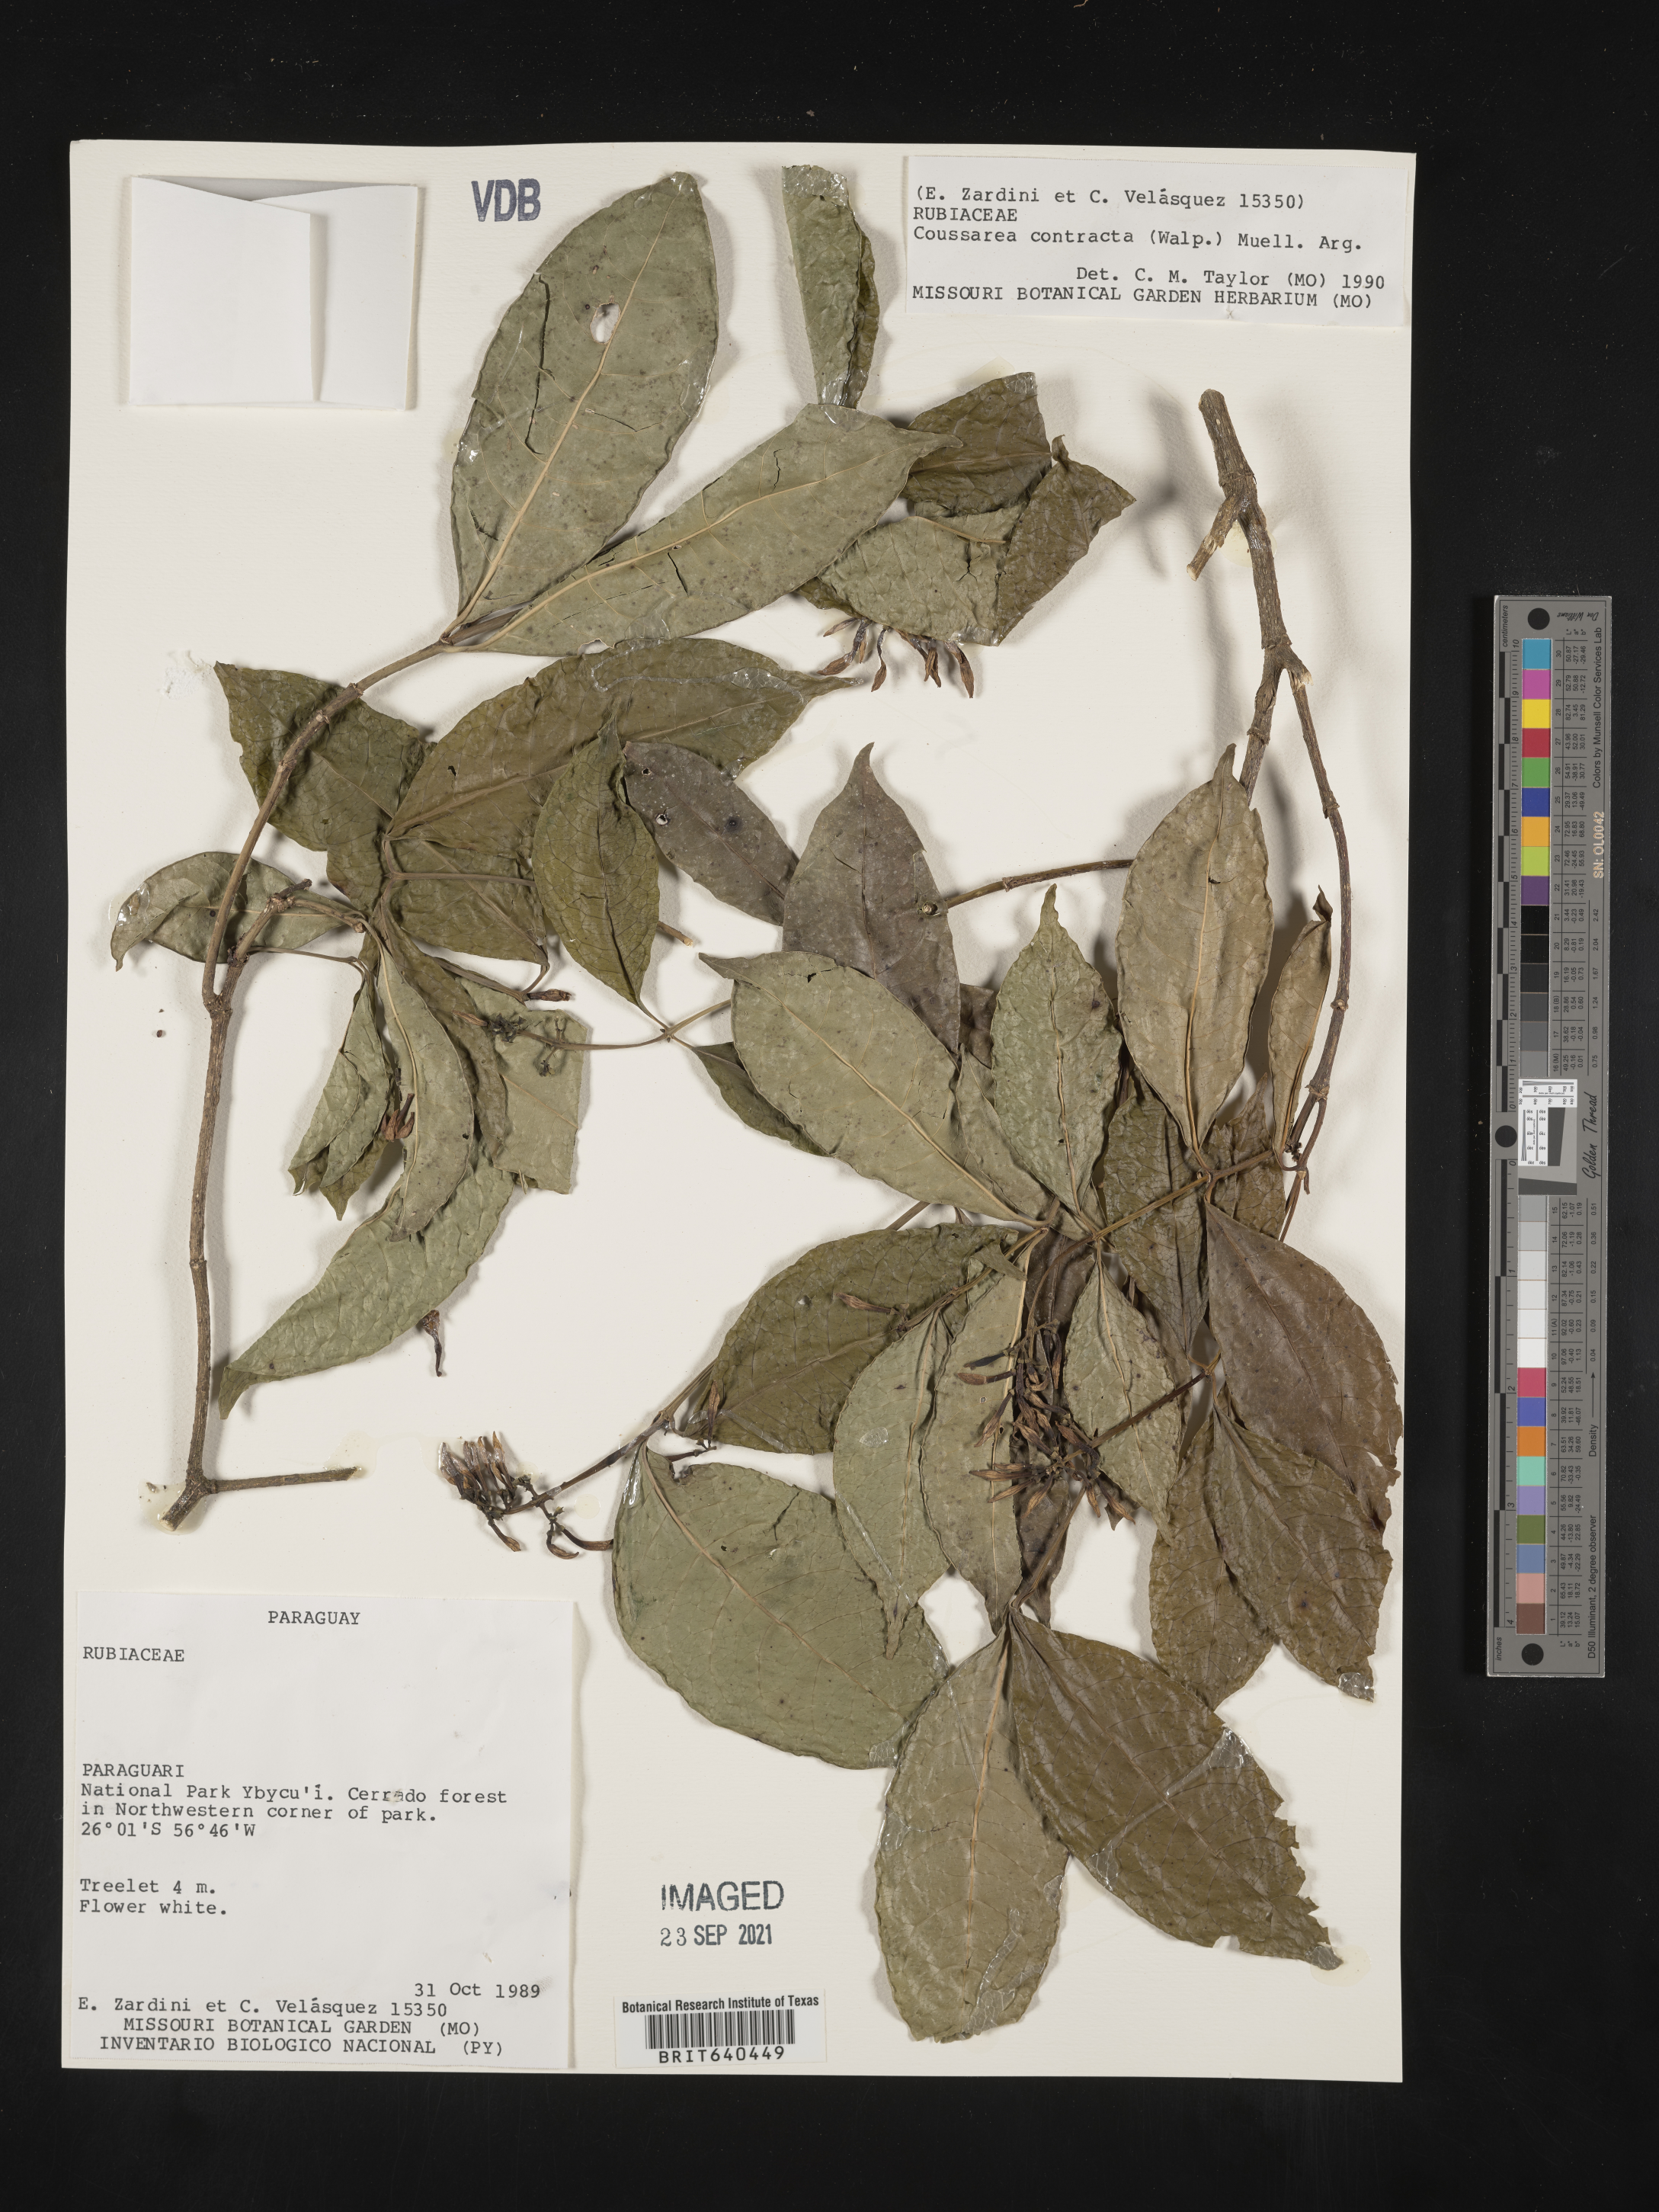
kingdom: Plantae
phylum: Tracheophyta
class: Magnoliopsida
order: Gentianales
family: Rubiaceae
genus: Coussarea
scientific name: Coussarea
